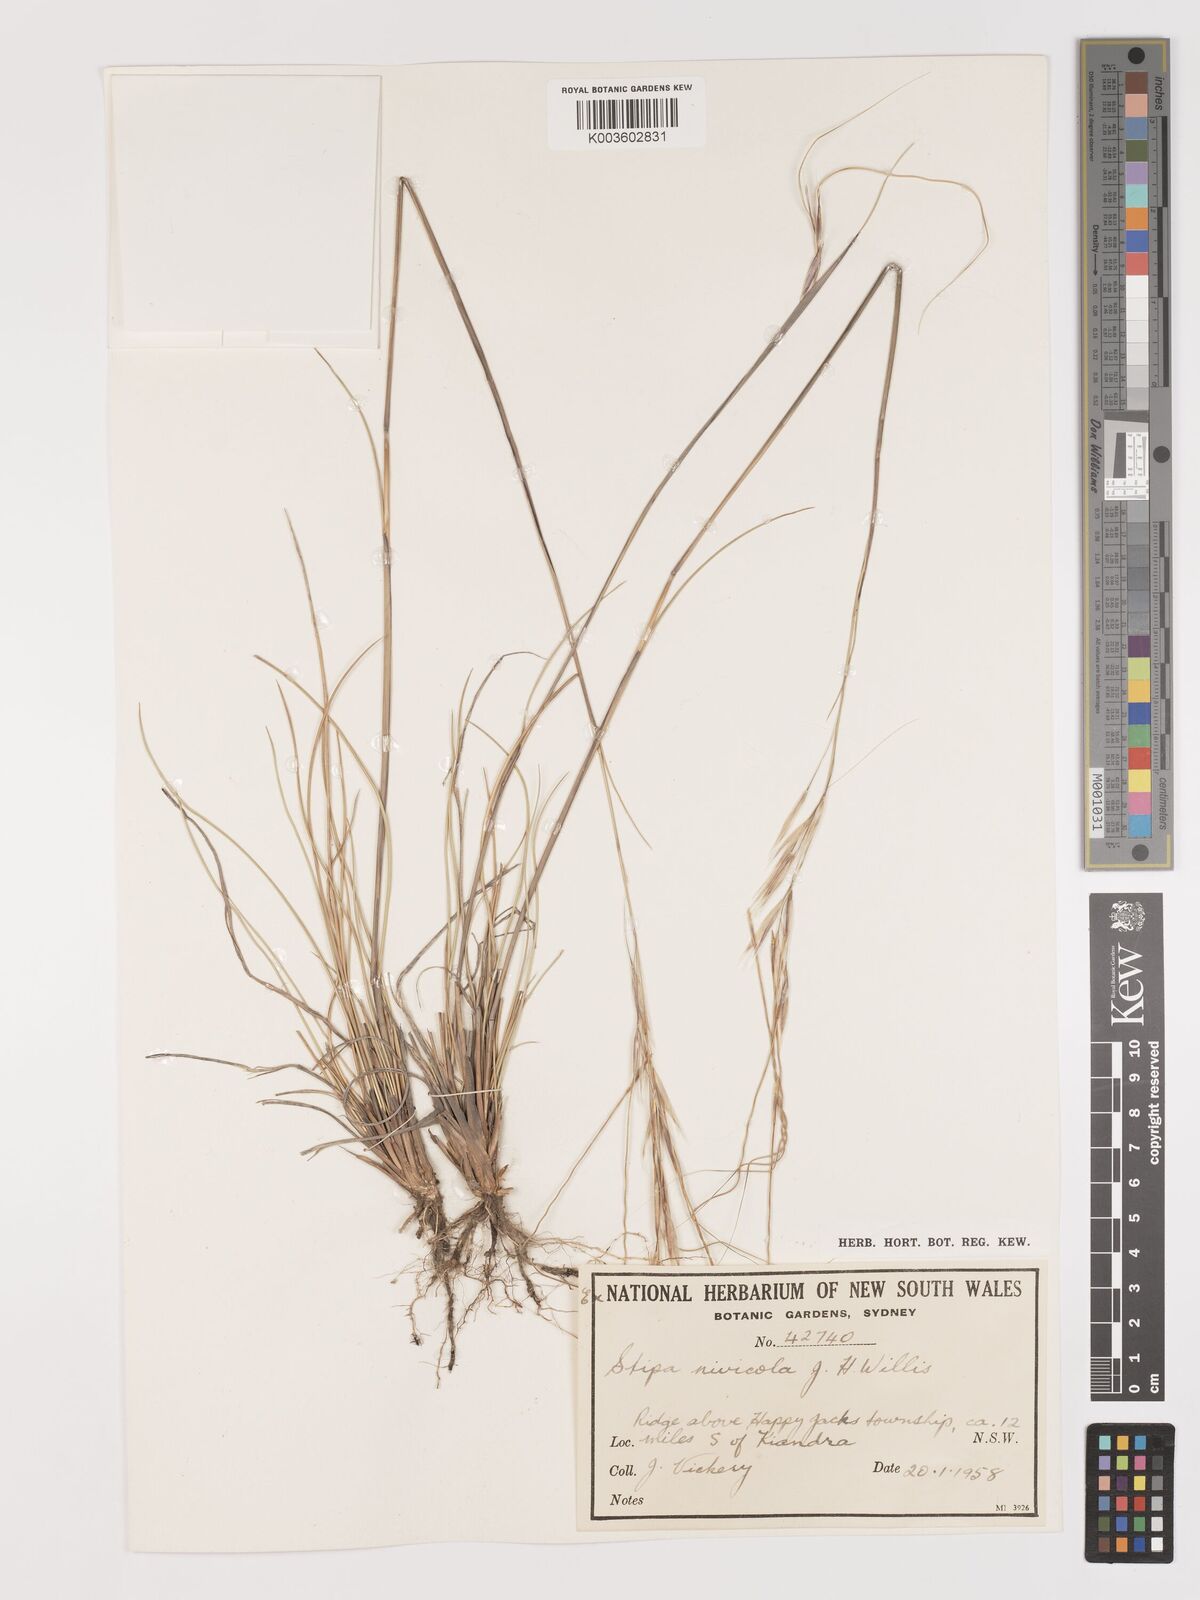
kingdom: Plantae
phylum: Tracheophyta
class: Liliopsida
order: Poales
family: Poaceae
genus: Austrostipa
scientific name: Austrostipa nivicola
